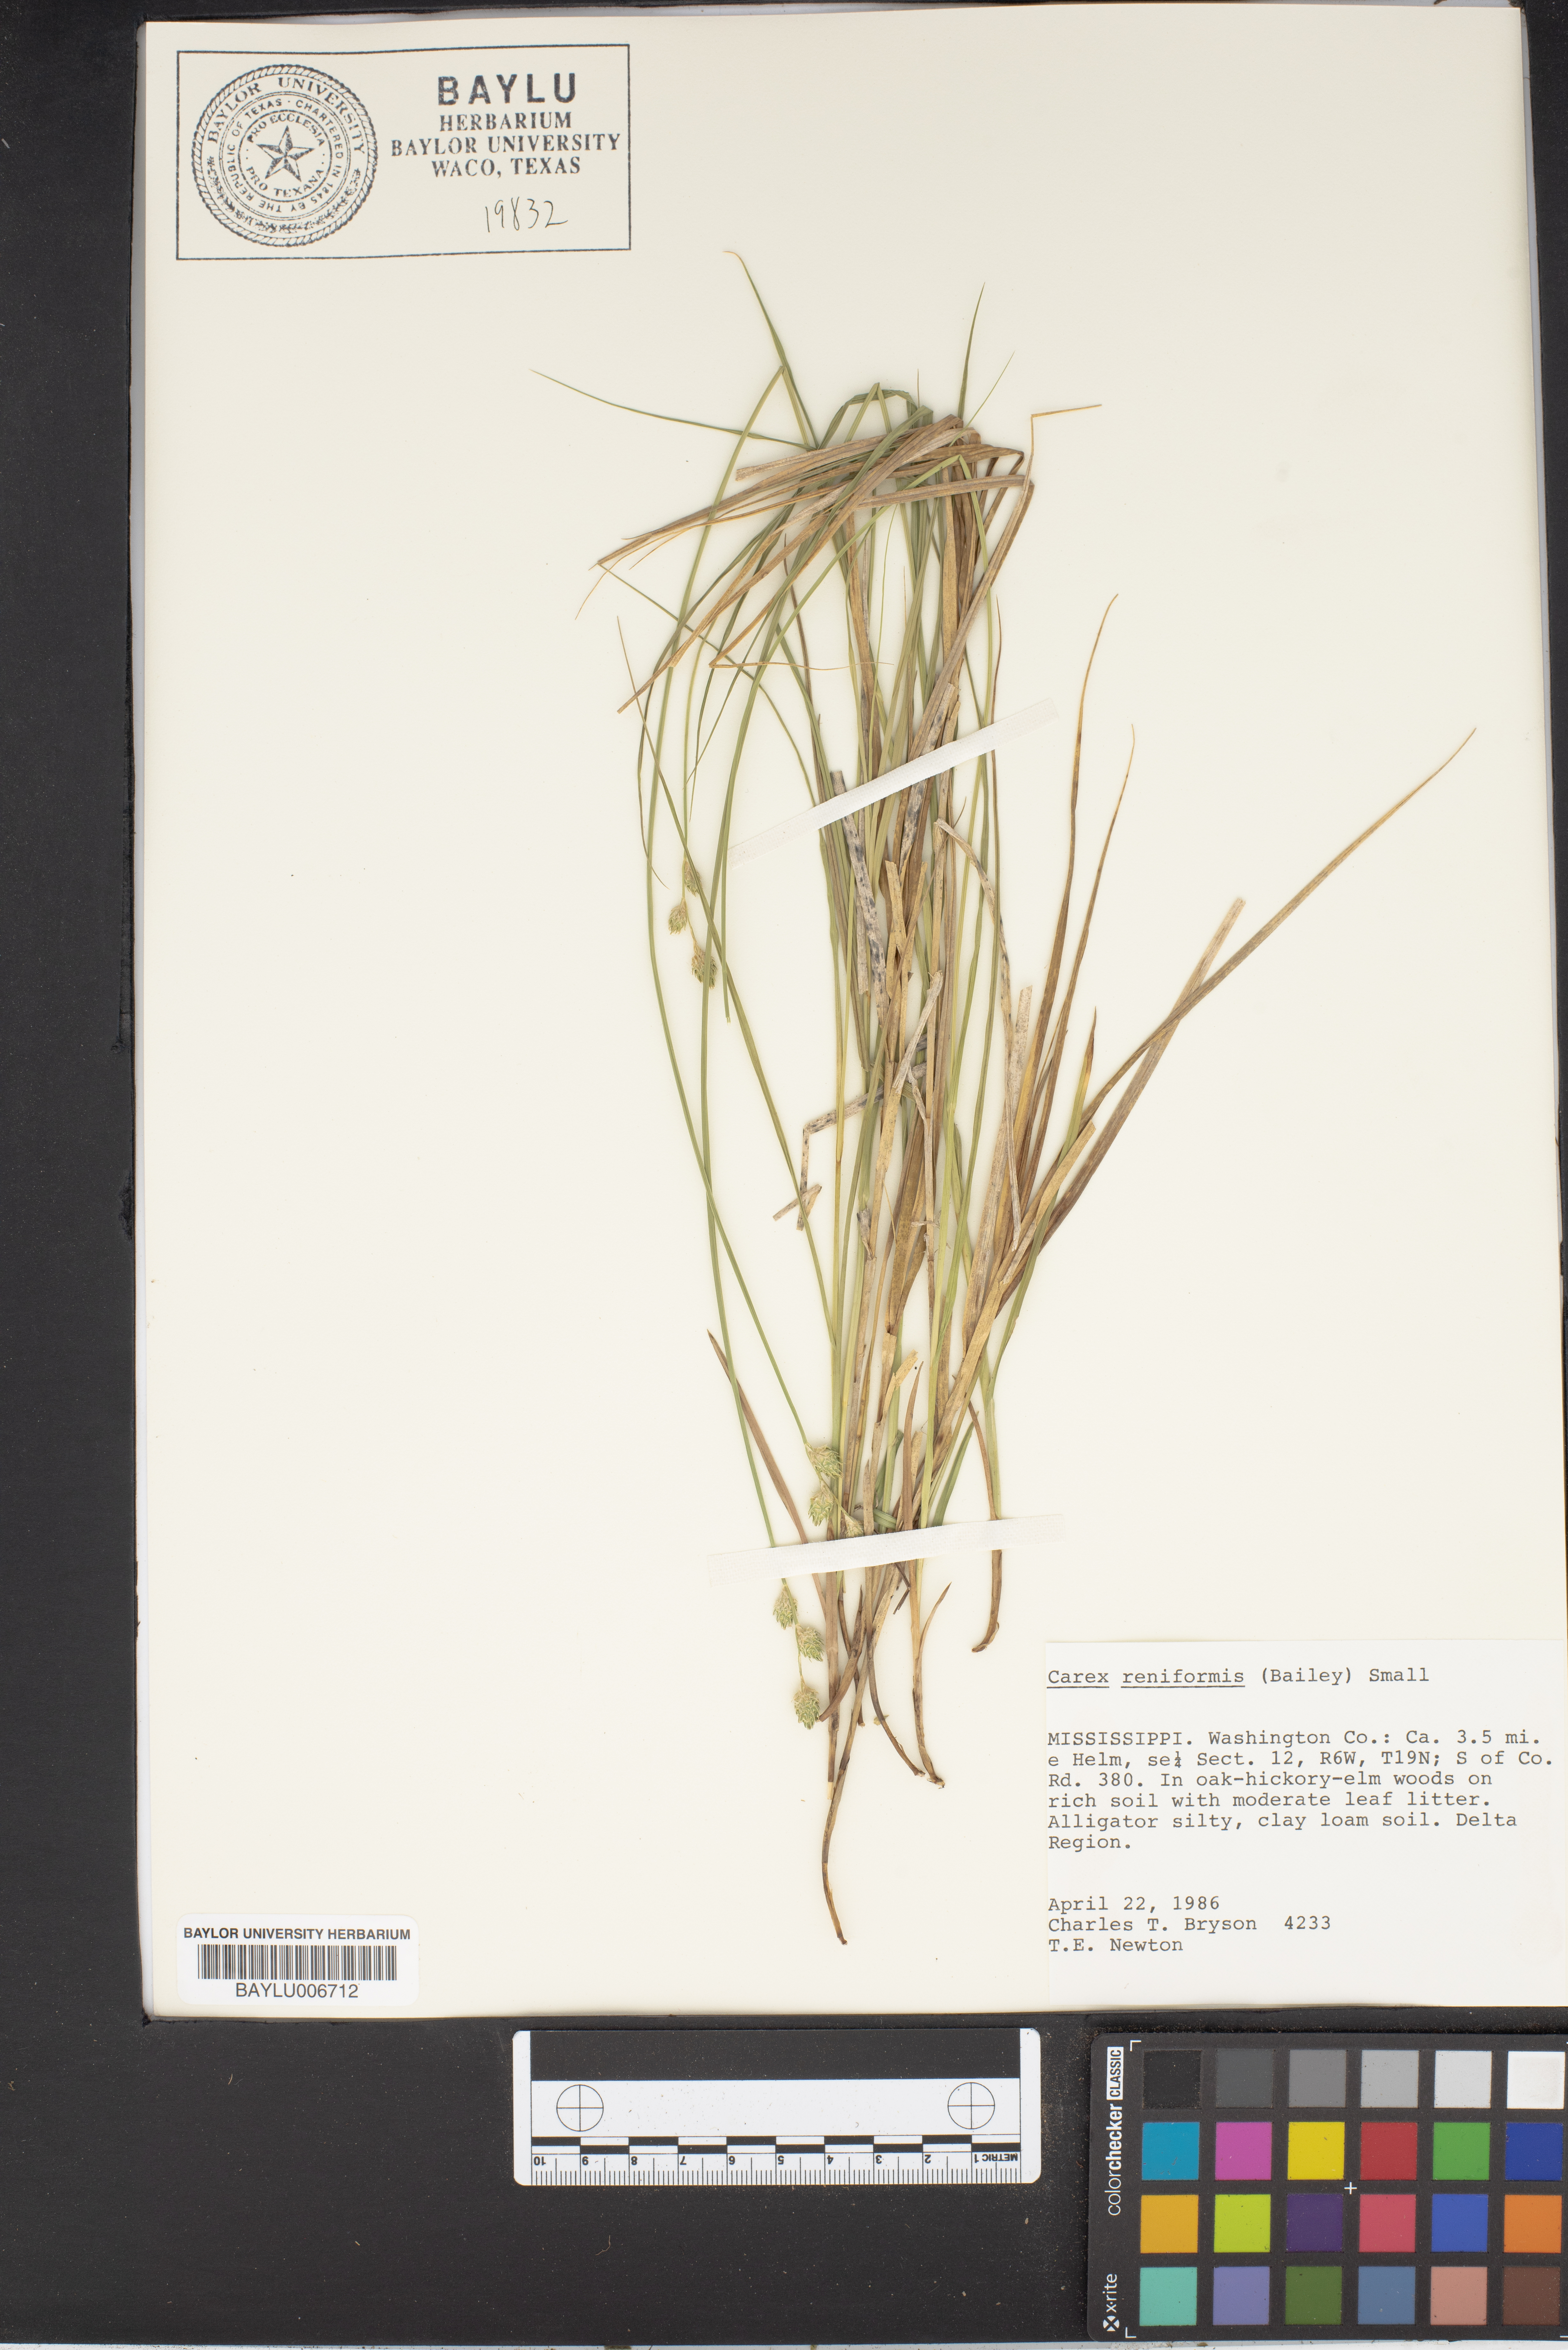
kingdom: Plantae
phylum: Tracheophyta
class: Liliopsida
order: Poales
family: Cyperaceae
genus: Carex
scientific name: Carex reniformis
